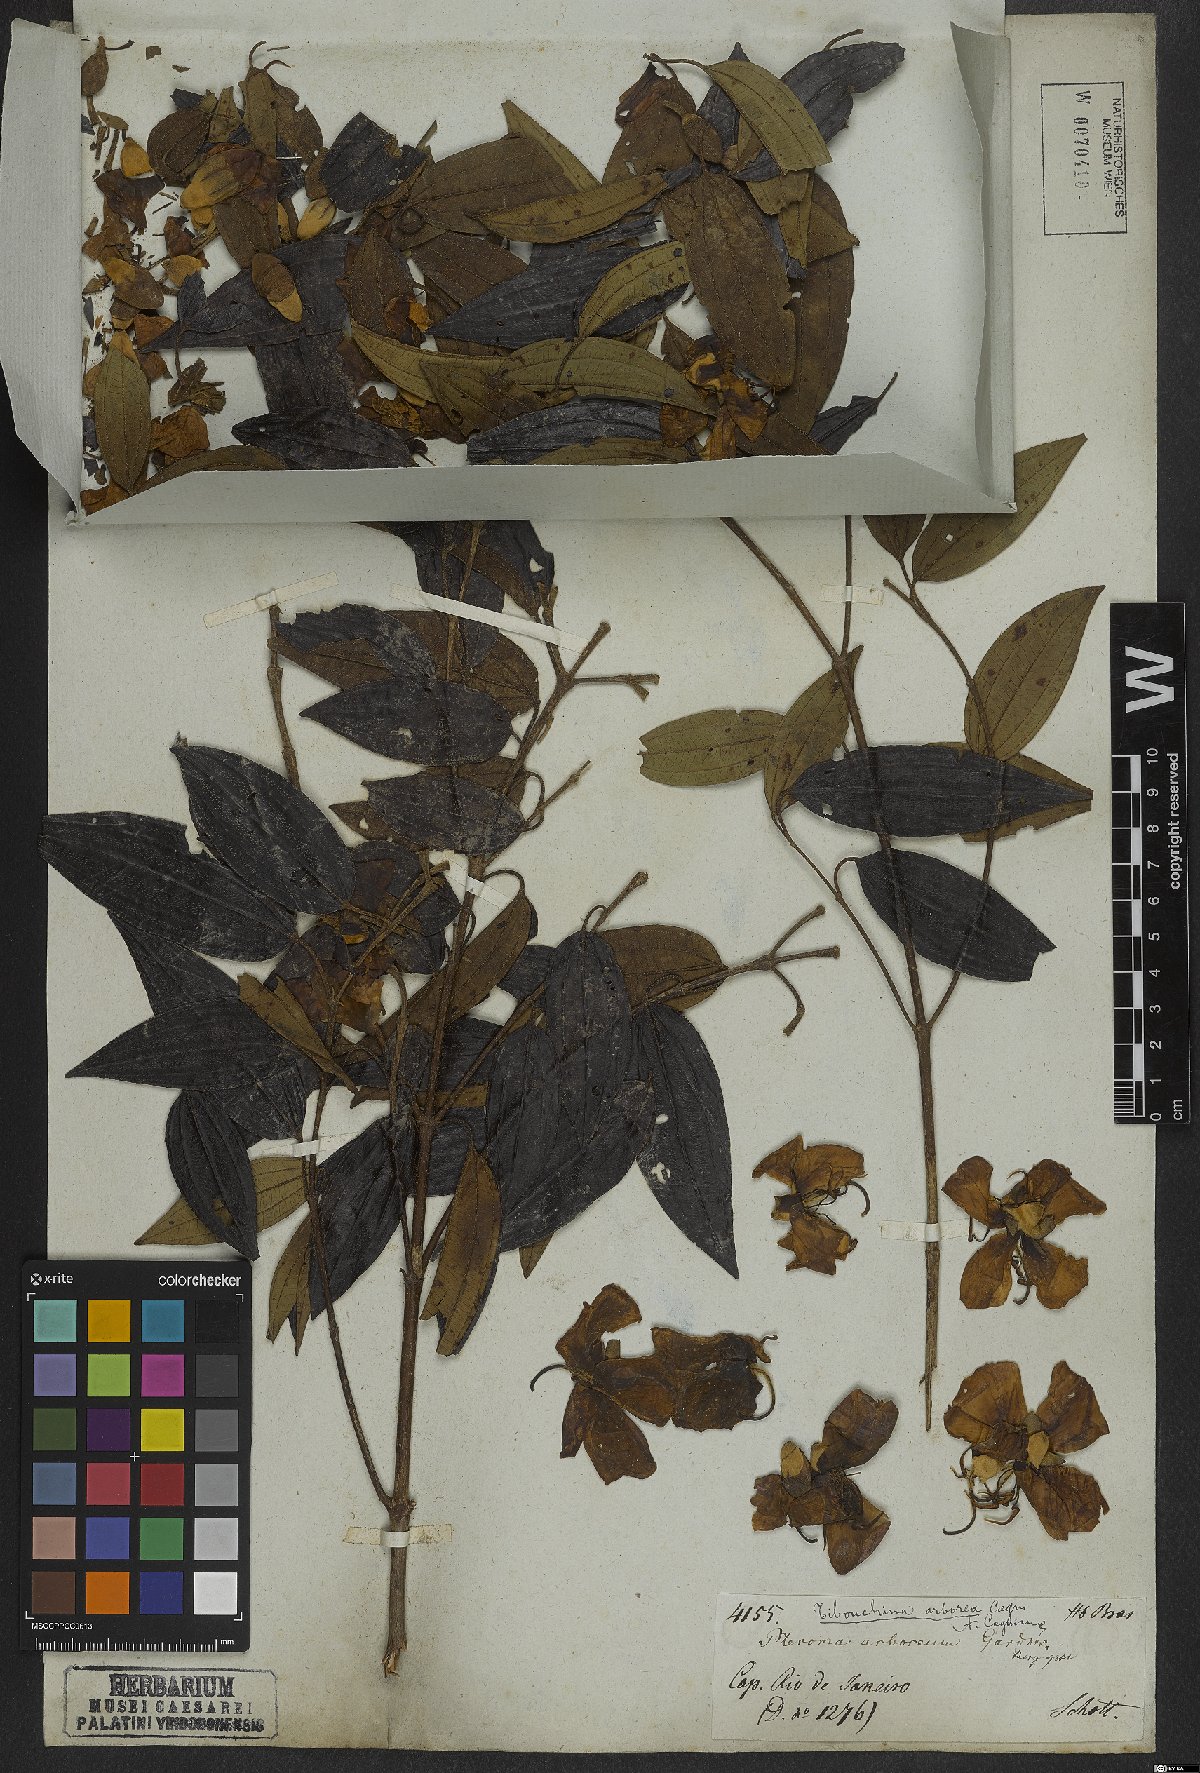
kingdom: Plantae
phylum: Tracheophyta
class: Magnoliopsida
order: Myrtales
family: Melastomataceae
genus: Pleroma
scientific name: Pleroma arboreum
